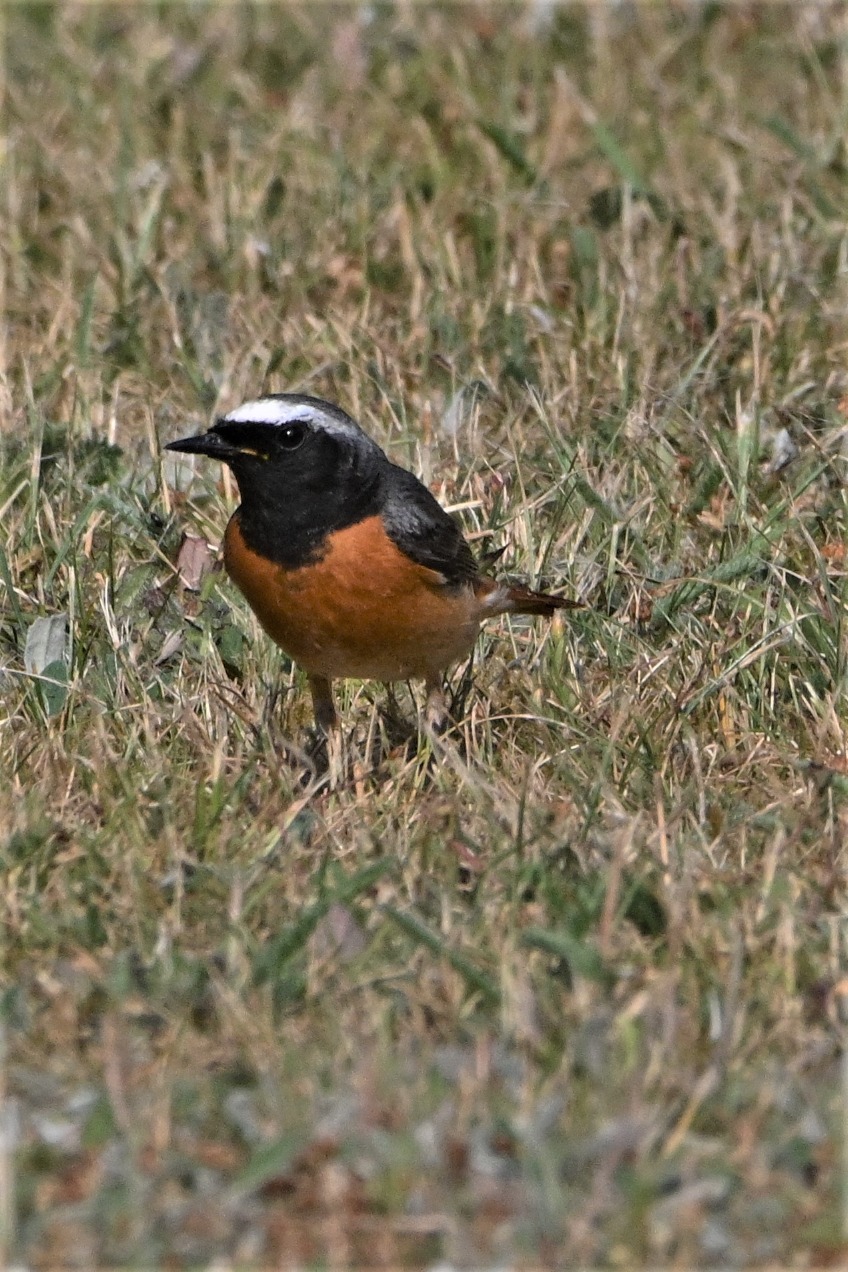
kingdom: Animalia
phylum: Chordata
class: Aves
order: Passeriformes
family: Muscicapidae
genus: Phoenicurus
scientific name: Phoenicurus phoenicurus
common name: Rødstjert
